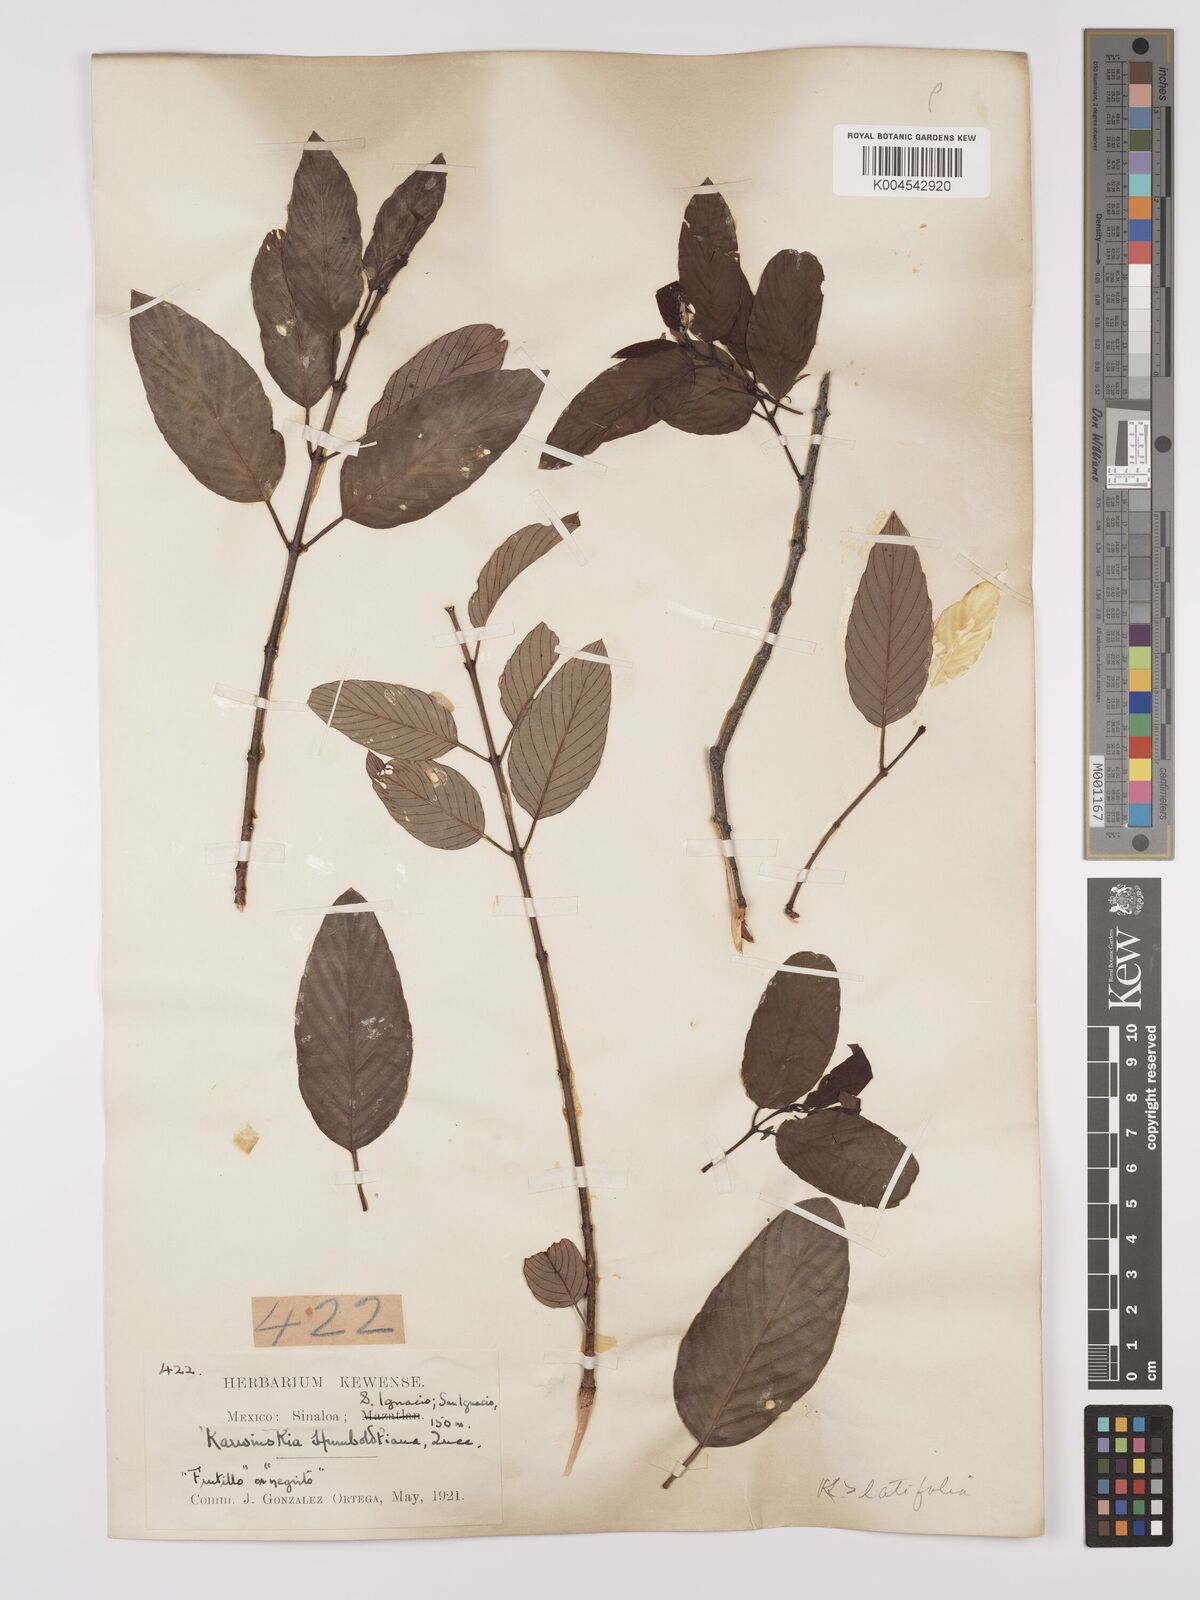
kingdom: Plantae
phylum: Tracheophyta
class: Magnoliopsida
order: Rosales
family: Rhamnaceae
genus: Karwinskia
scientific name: Karwinskia latifolia
